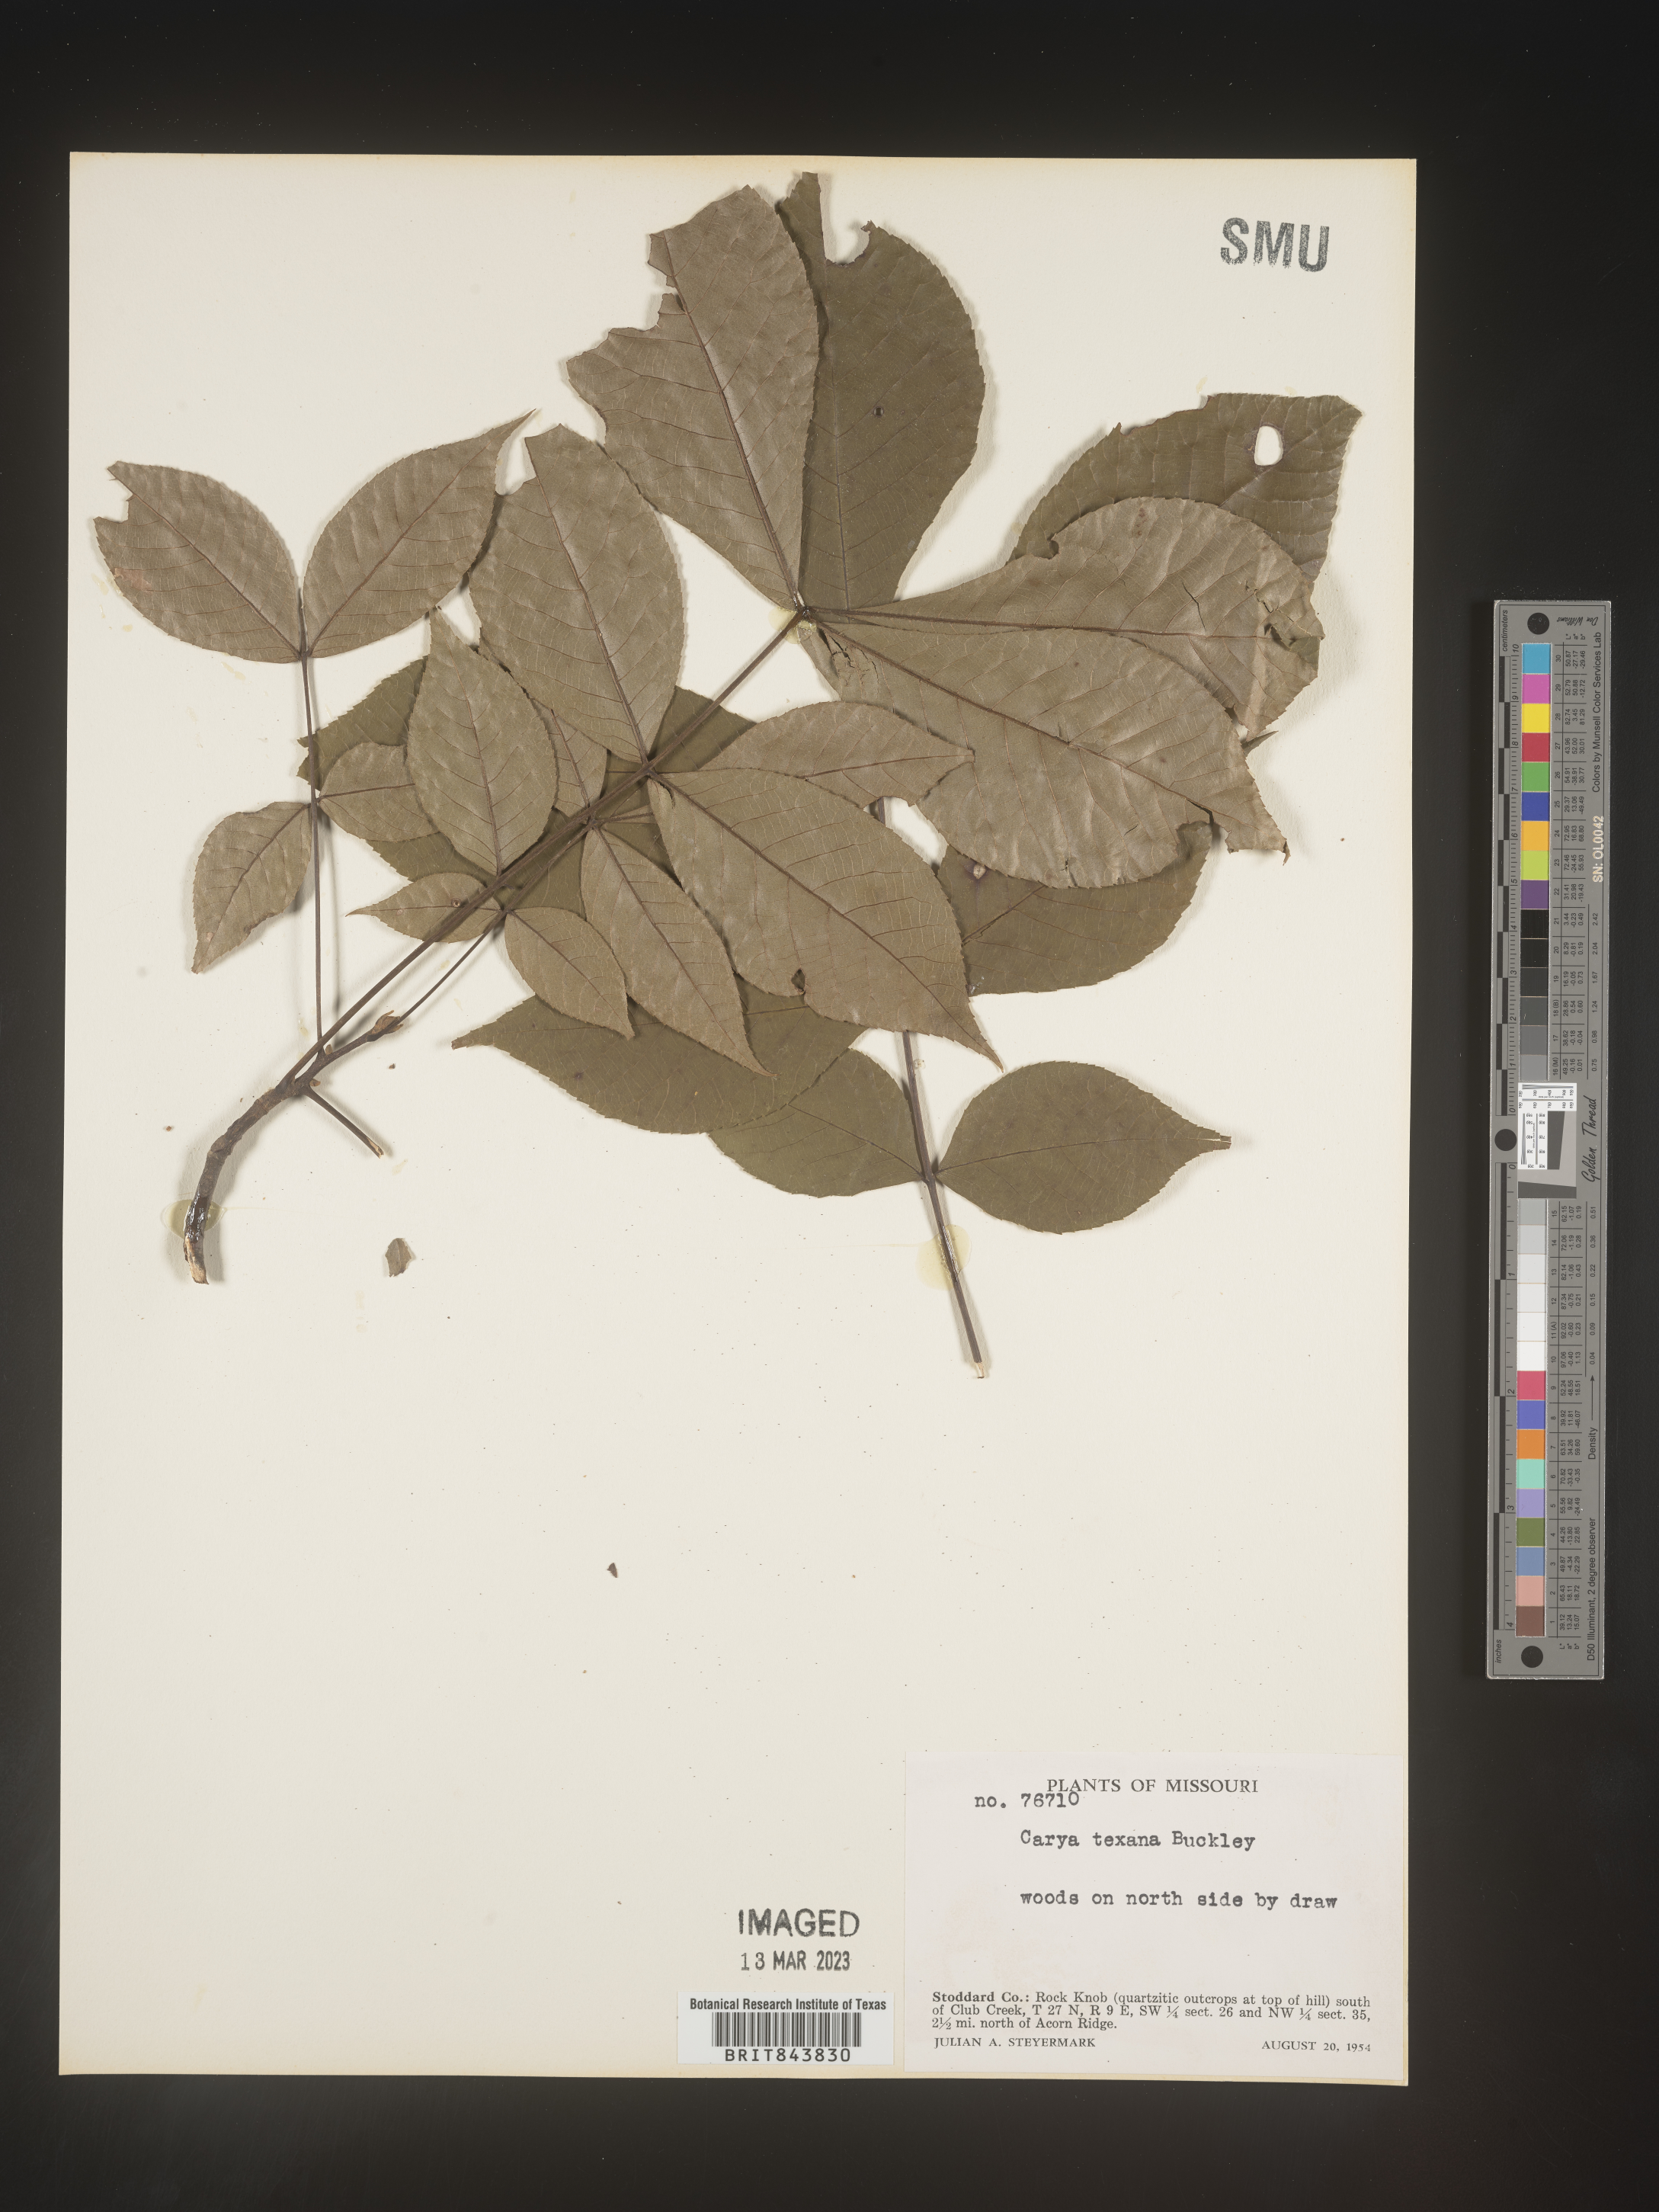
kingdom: Plantae
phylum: Tracheophyta
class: Magnoliopsida
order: Fagales
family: Juglandaceae
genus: Carya
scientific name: Carya texana
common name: Black hickory
